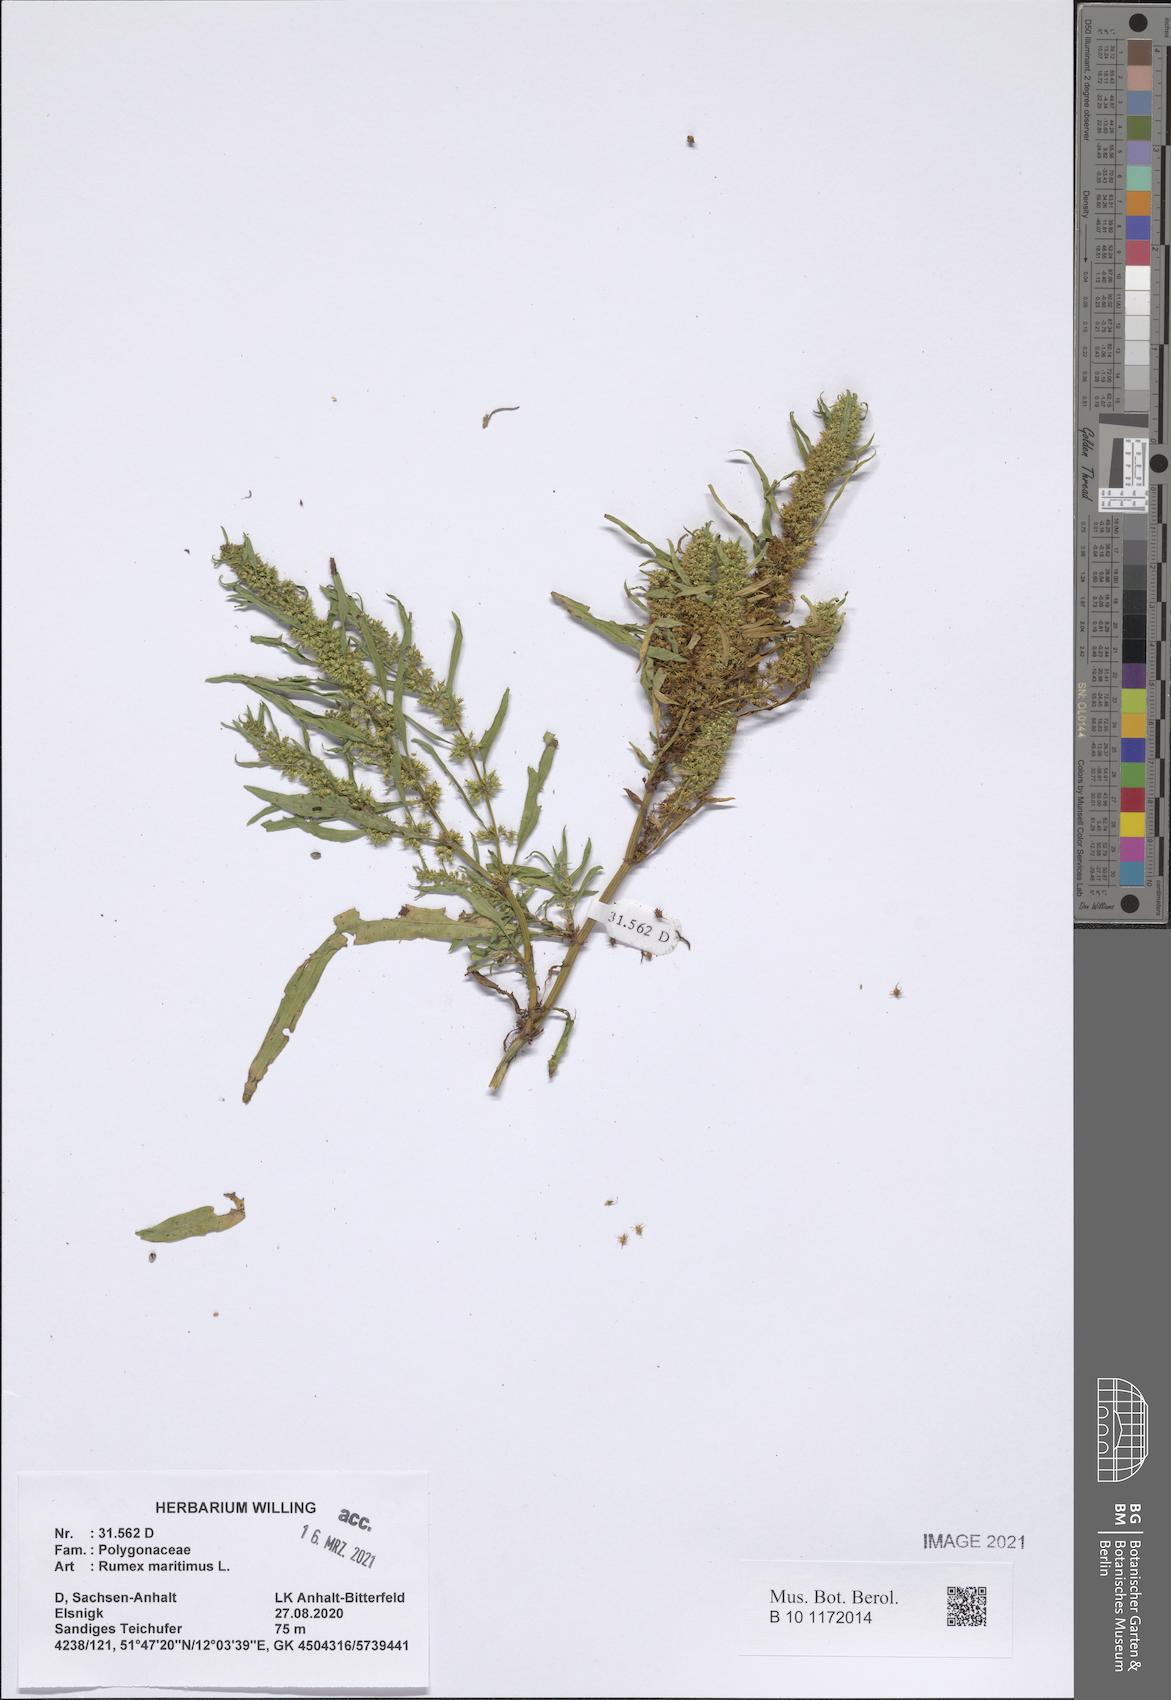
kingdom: Plantae
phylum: Tracheophyta
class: Magnoliopsida
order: Caryophyllales
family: Polygonaceae
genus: Rumex
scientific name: Rumex maritimus
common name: Golden dock
